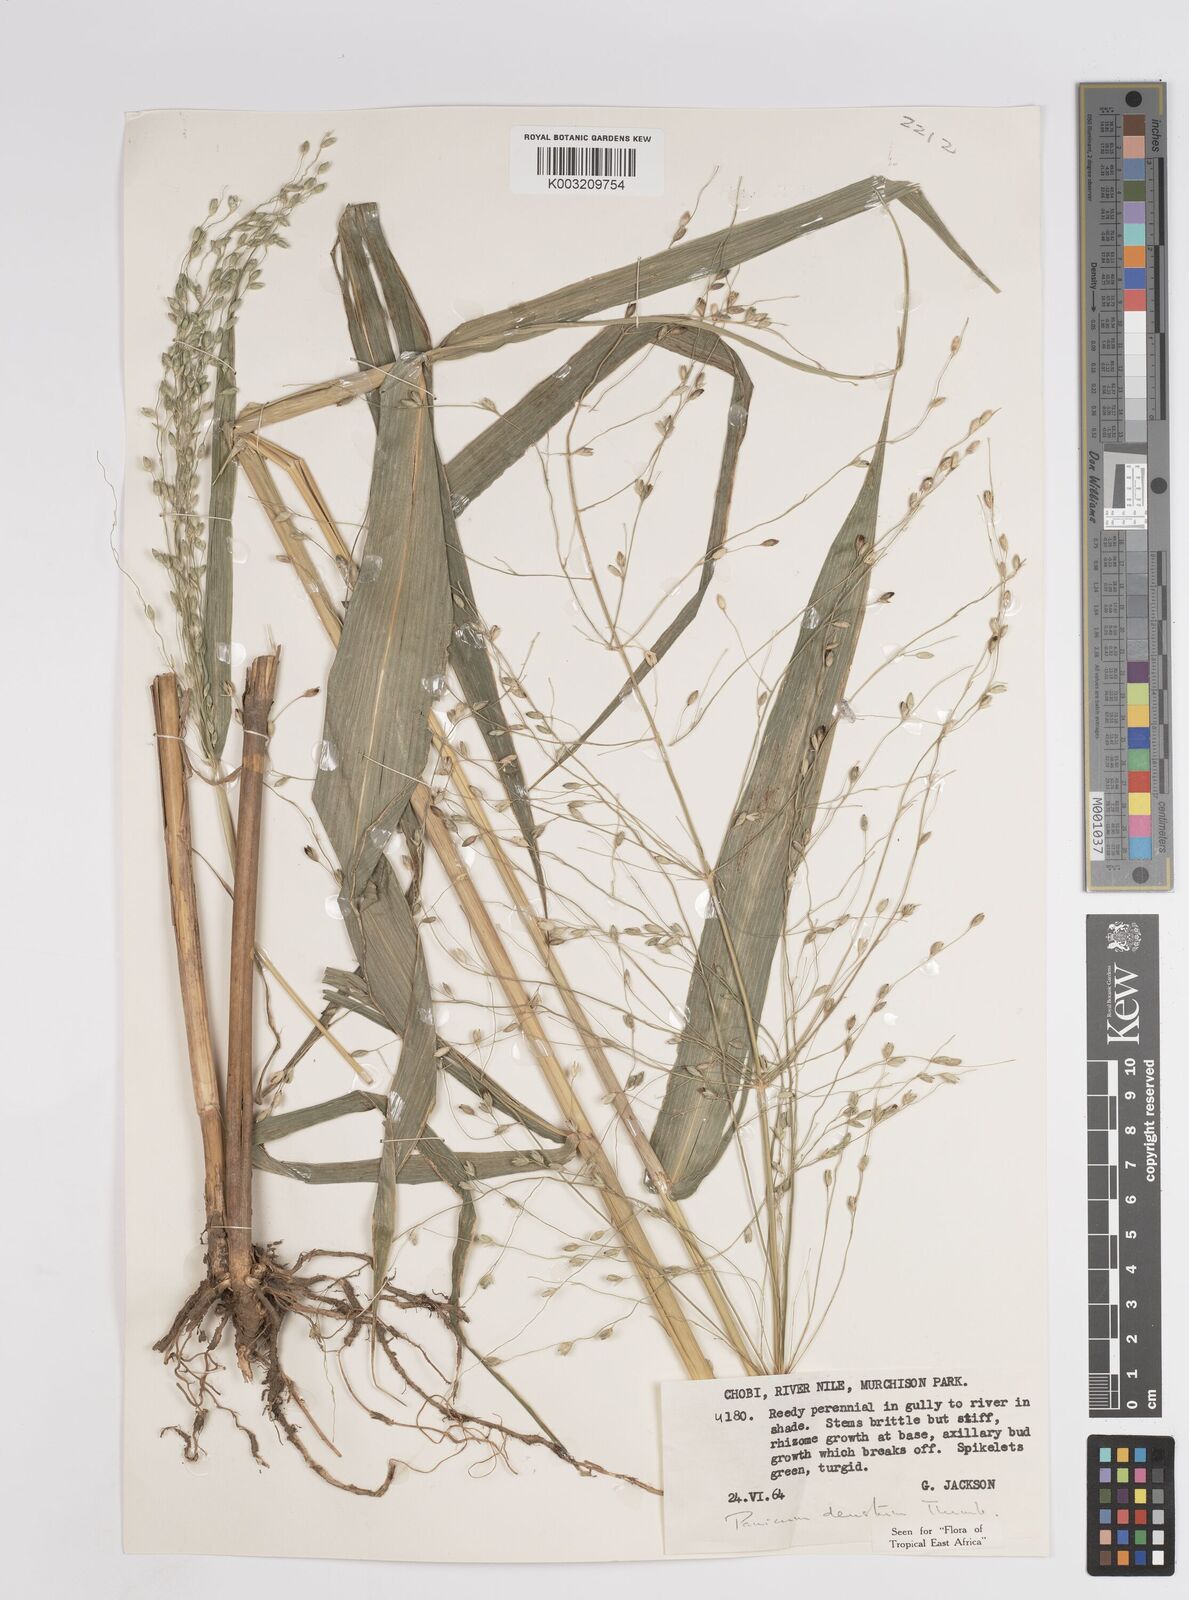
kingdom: Plantae
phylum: Tracheophyta
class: Liliopsida
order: Poales
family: Poaceae
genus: Panicum
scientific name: Panicum
